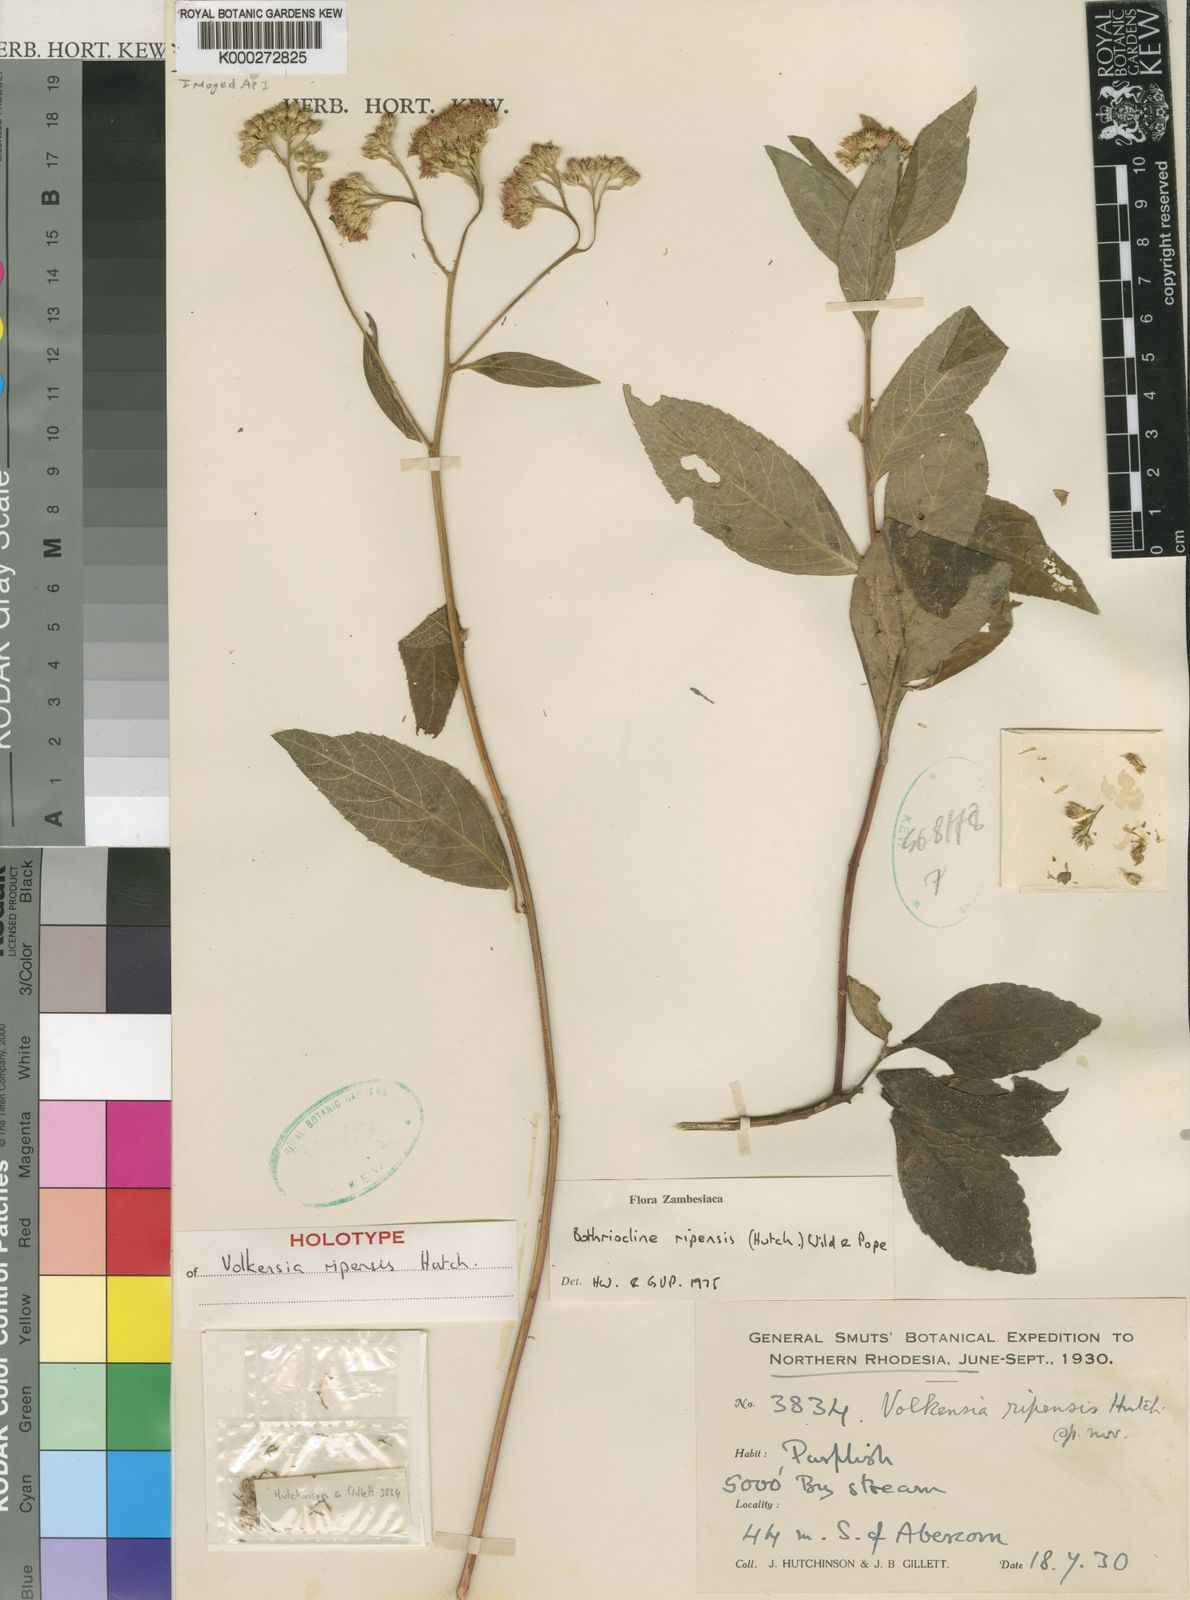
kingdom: Plantae
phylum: Tracheophyta
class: Magnoliopsida
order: Asterales
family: Asteraceae
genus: Bothriocline
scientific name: Bothriocline ripensis
